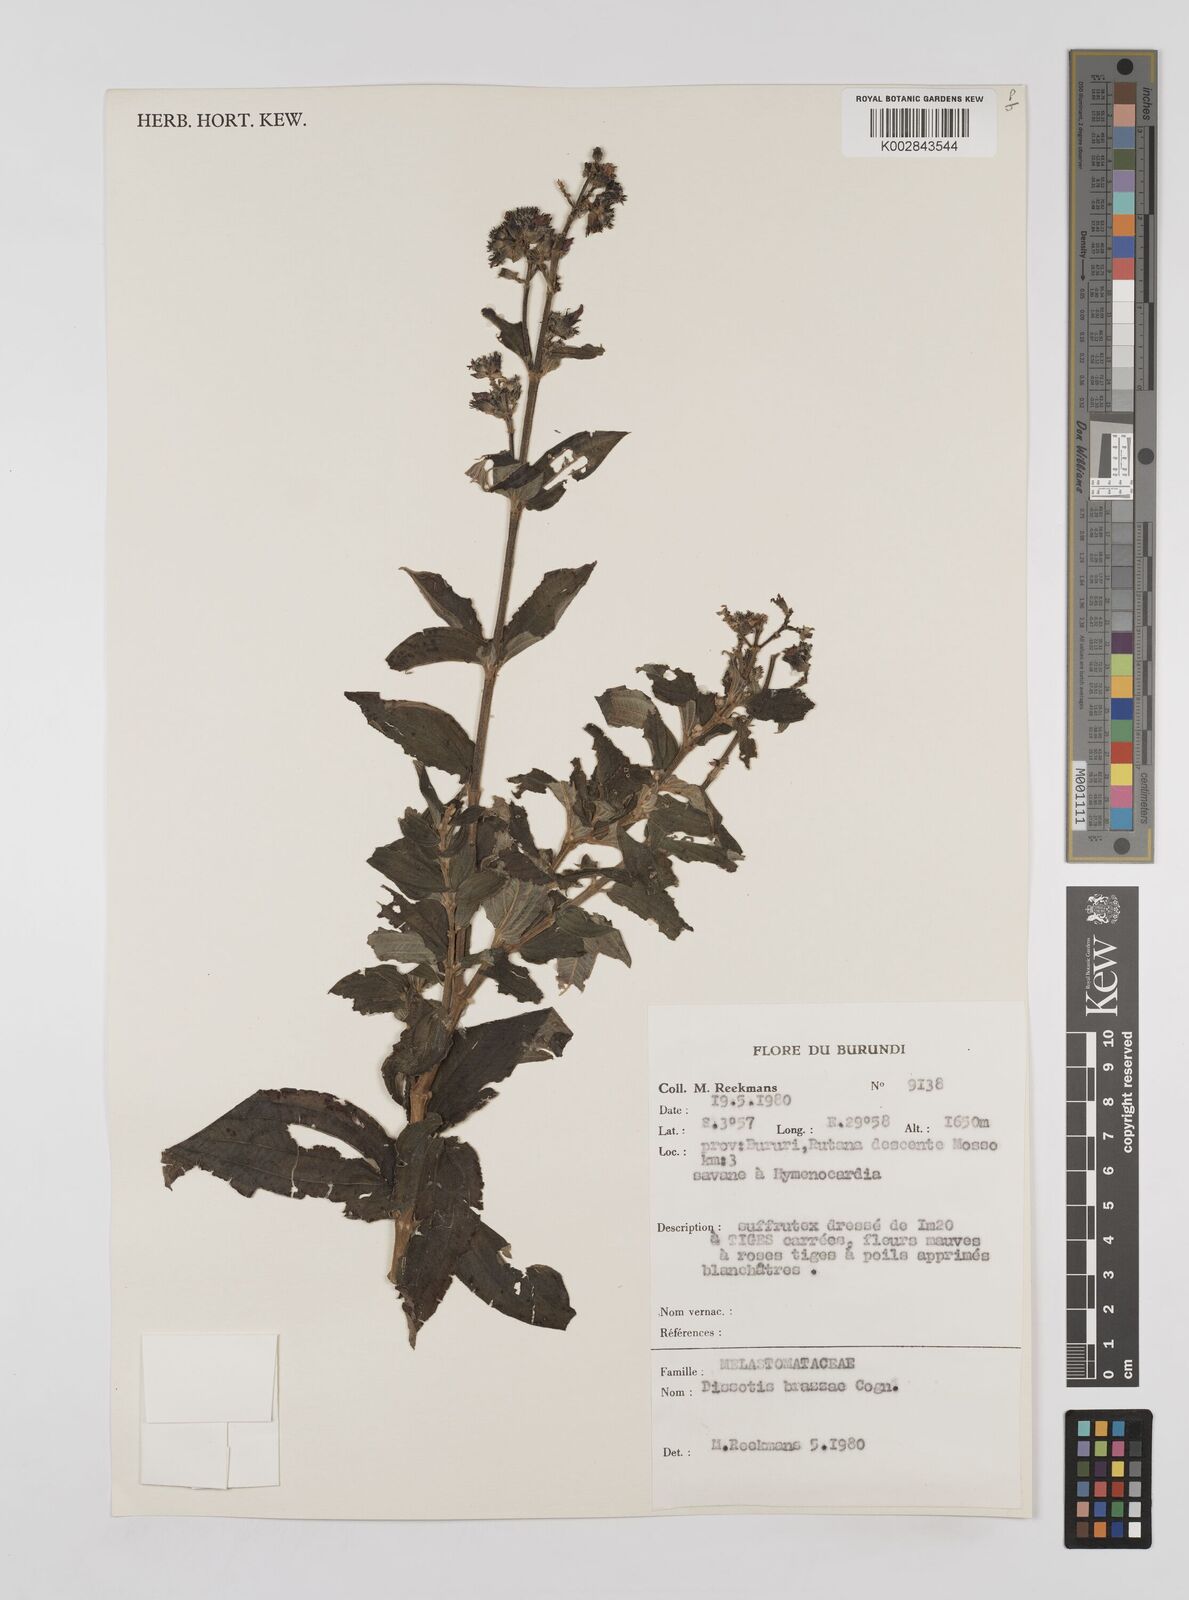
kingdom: Plantae
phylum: Tracheophyta
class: Magnoliopsida
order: Myrtales
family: Melastomataceae
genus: Dupineta
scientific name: Dupineta brazzae
